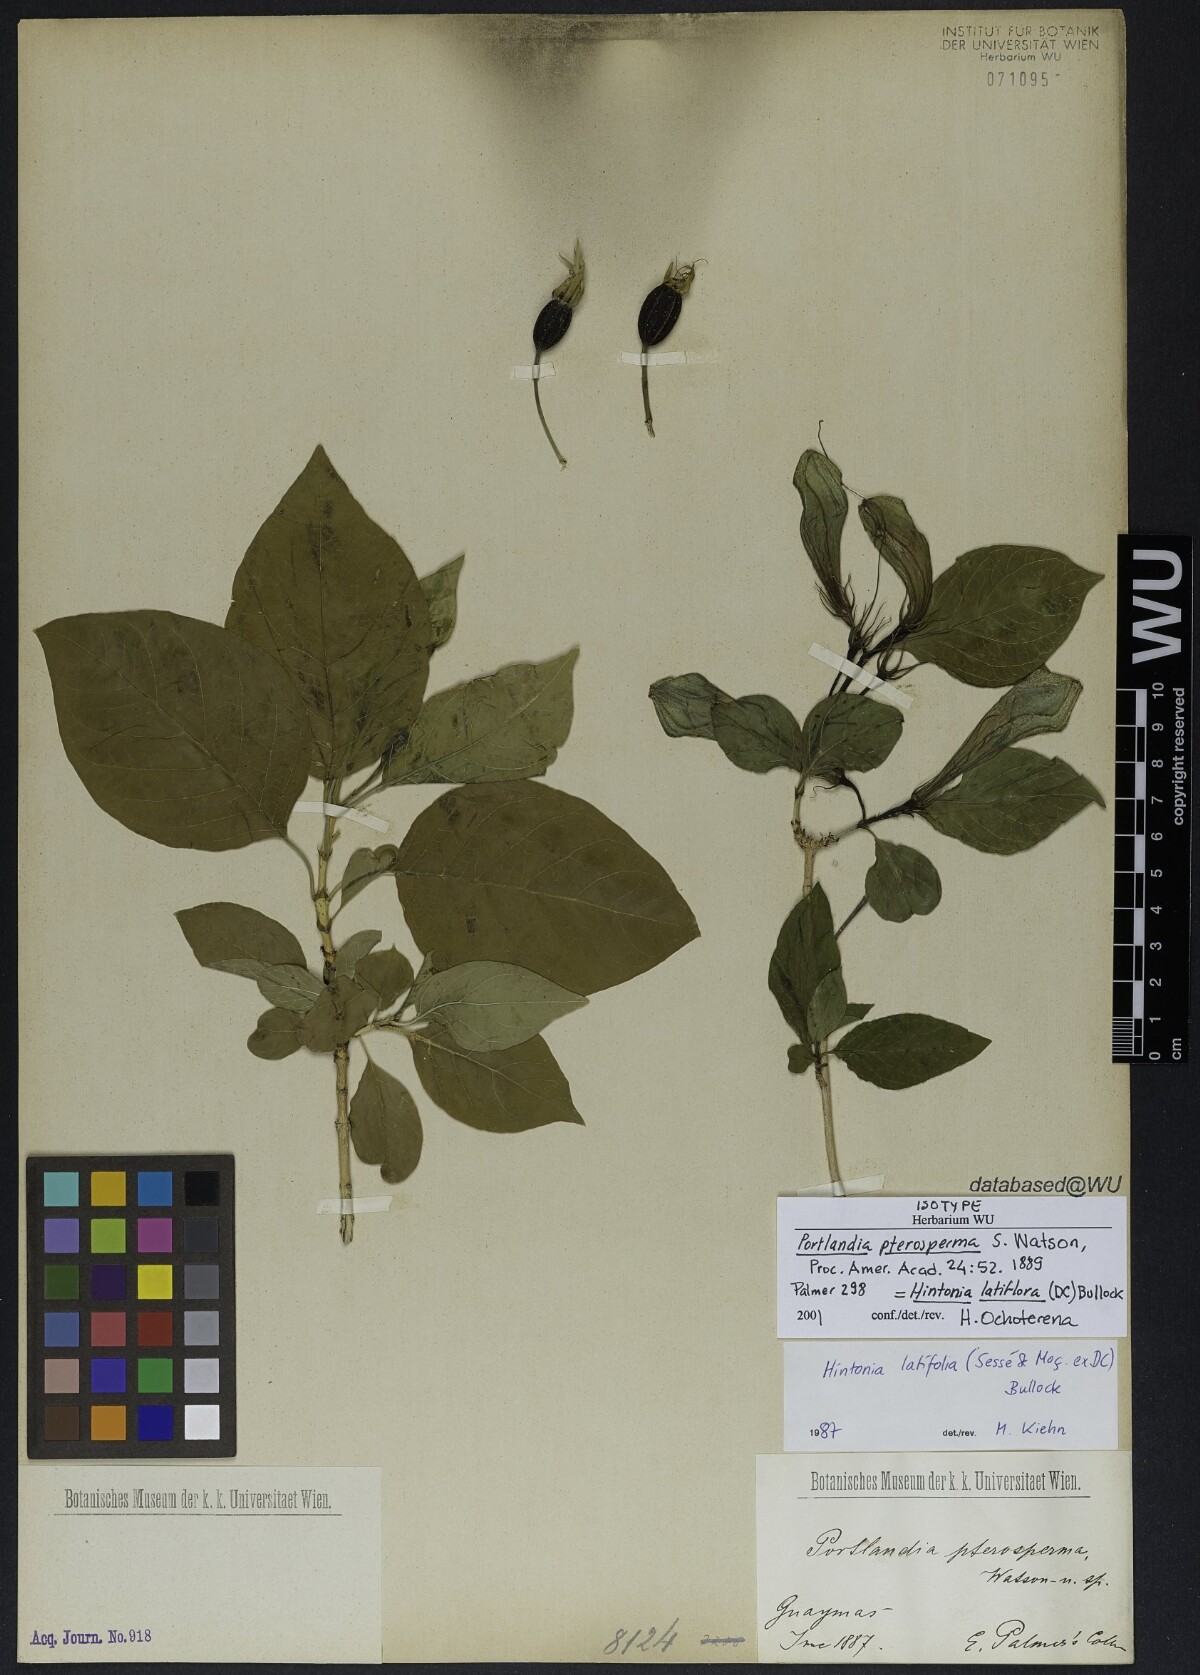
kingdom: Plantae
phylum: Tracheophyta
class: Magnoliopsida
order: Gentianales
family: Rubiaceae
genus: Hintonia
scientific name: Hintonia latiflora
